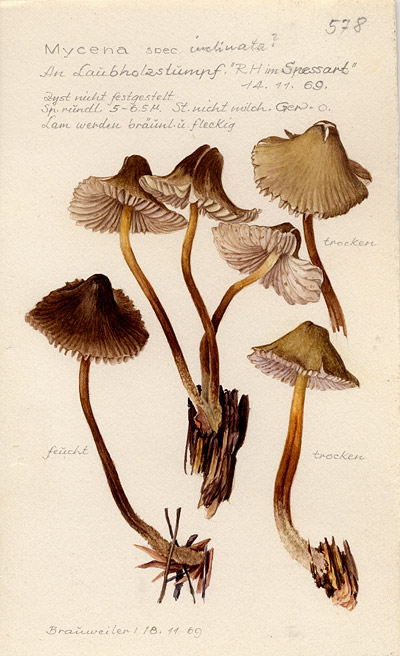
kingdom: Fungi
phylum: Basidiomycota
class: Agaricomycetes
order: Agaricales
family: Mycenaceae
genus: Mycena
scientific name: Mycena inclinata
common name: Clustered bonnet
